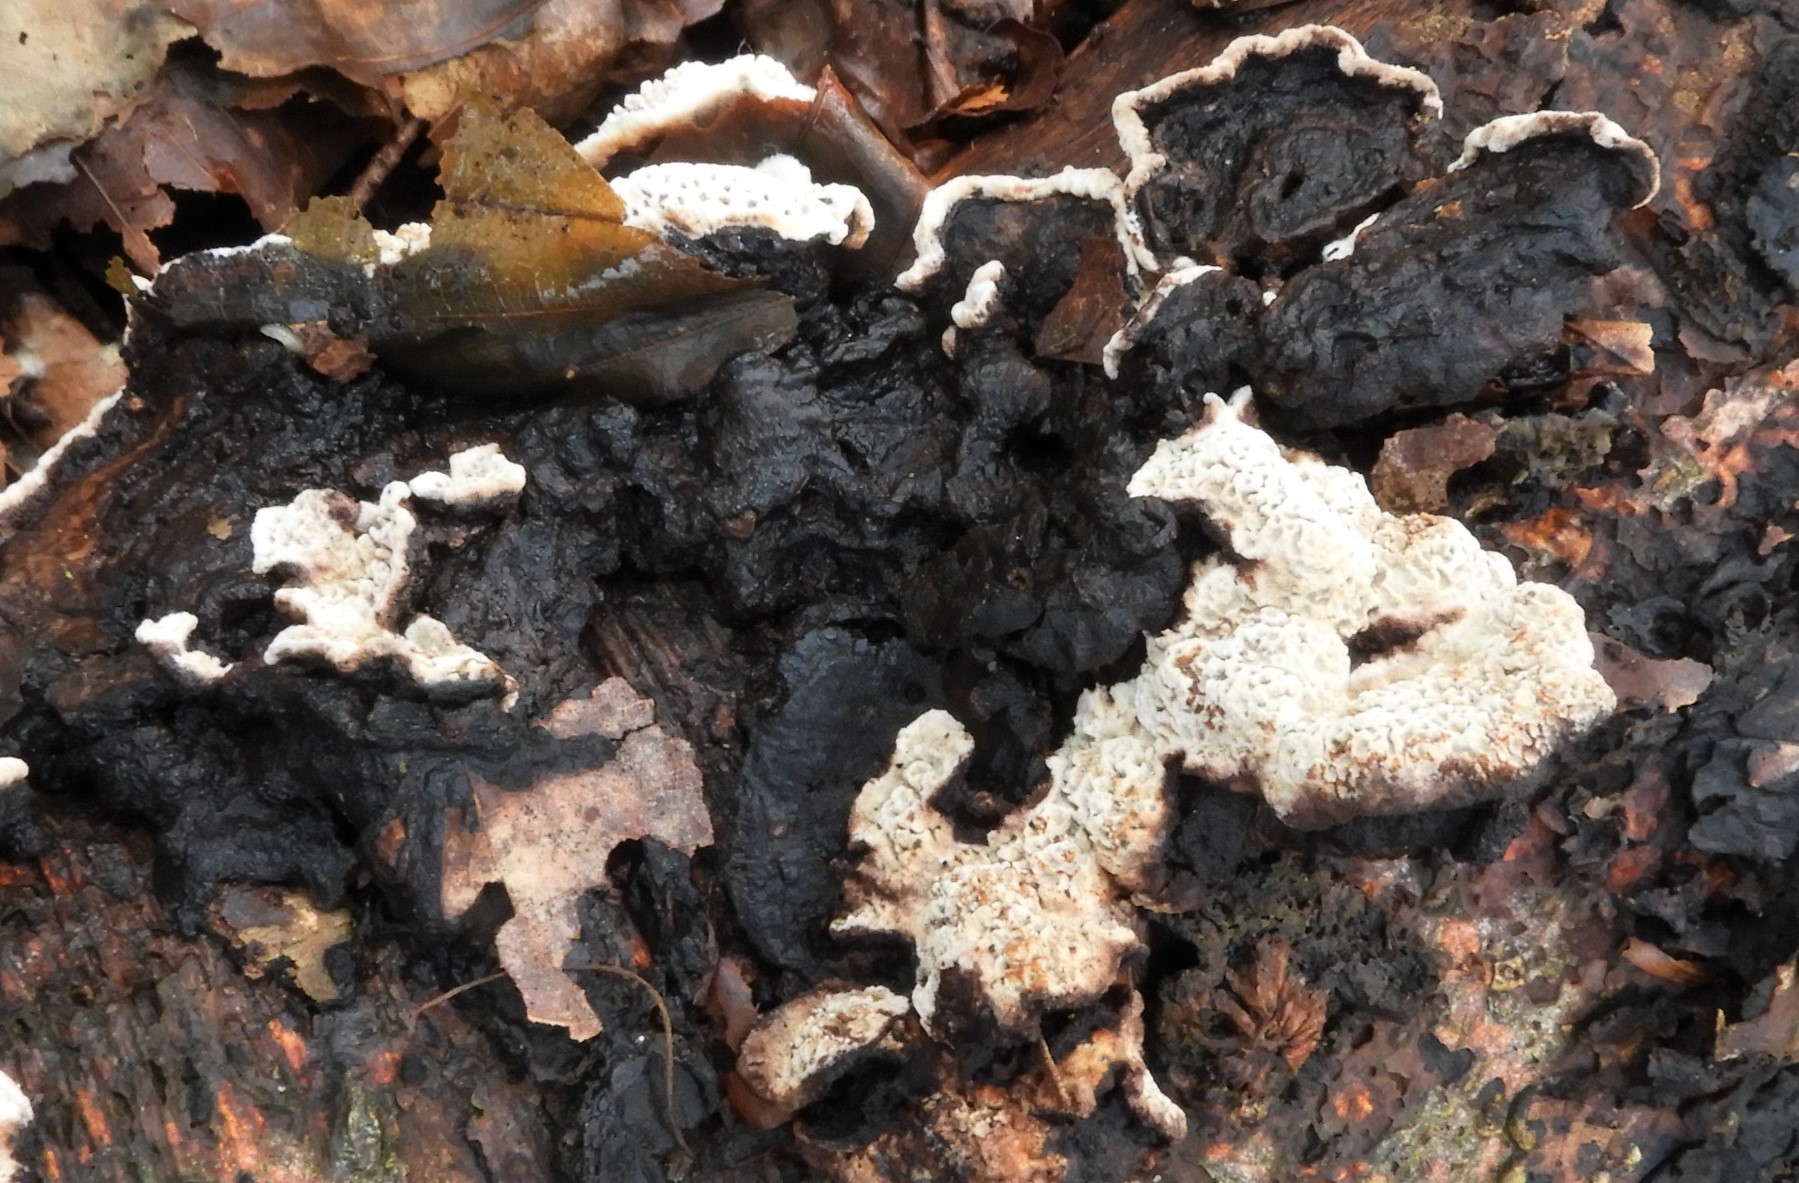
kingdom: Fungi
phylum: Basidiomycota
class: Agaricomycetes
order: Polyporales
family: Polyporaceae
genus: Podofomes
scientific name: Podofomes mollis
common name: blød begporesvamp
